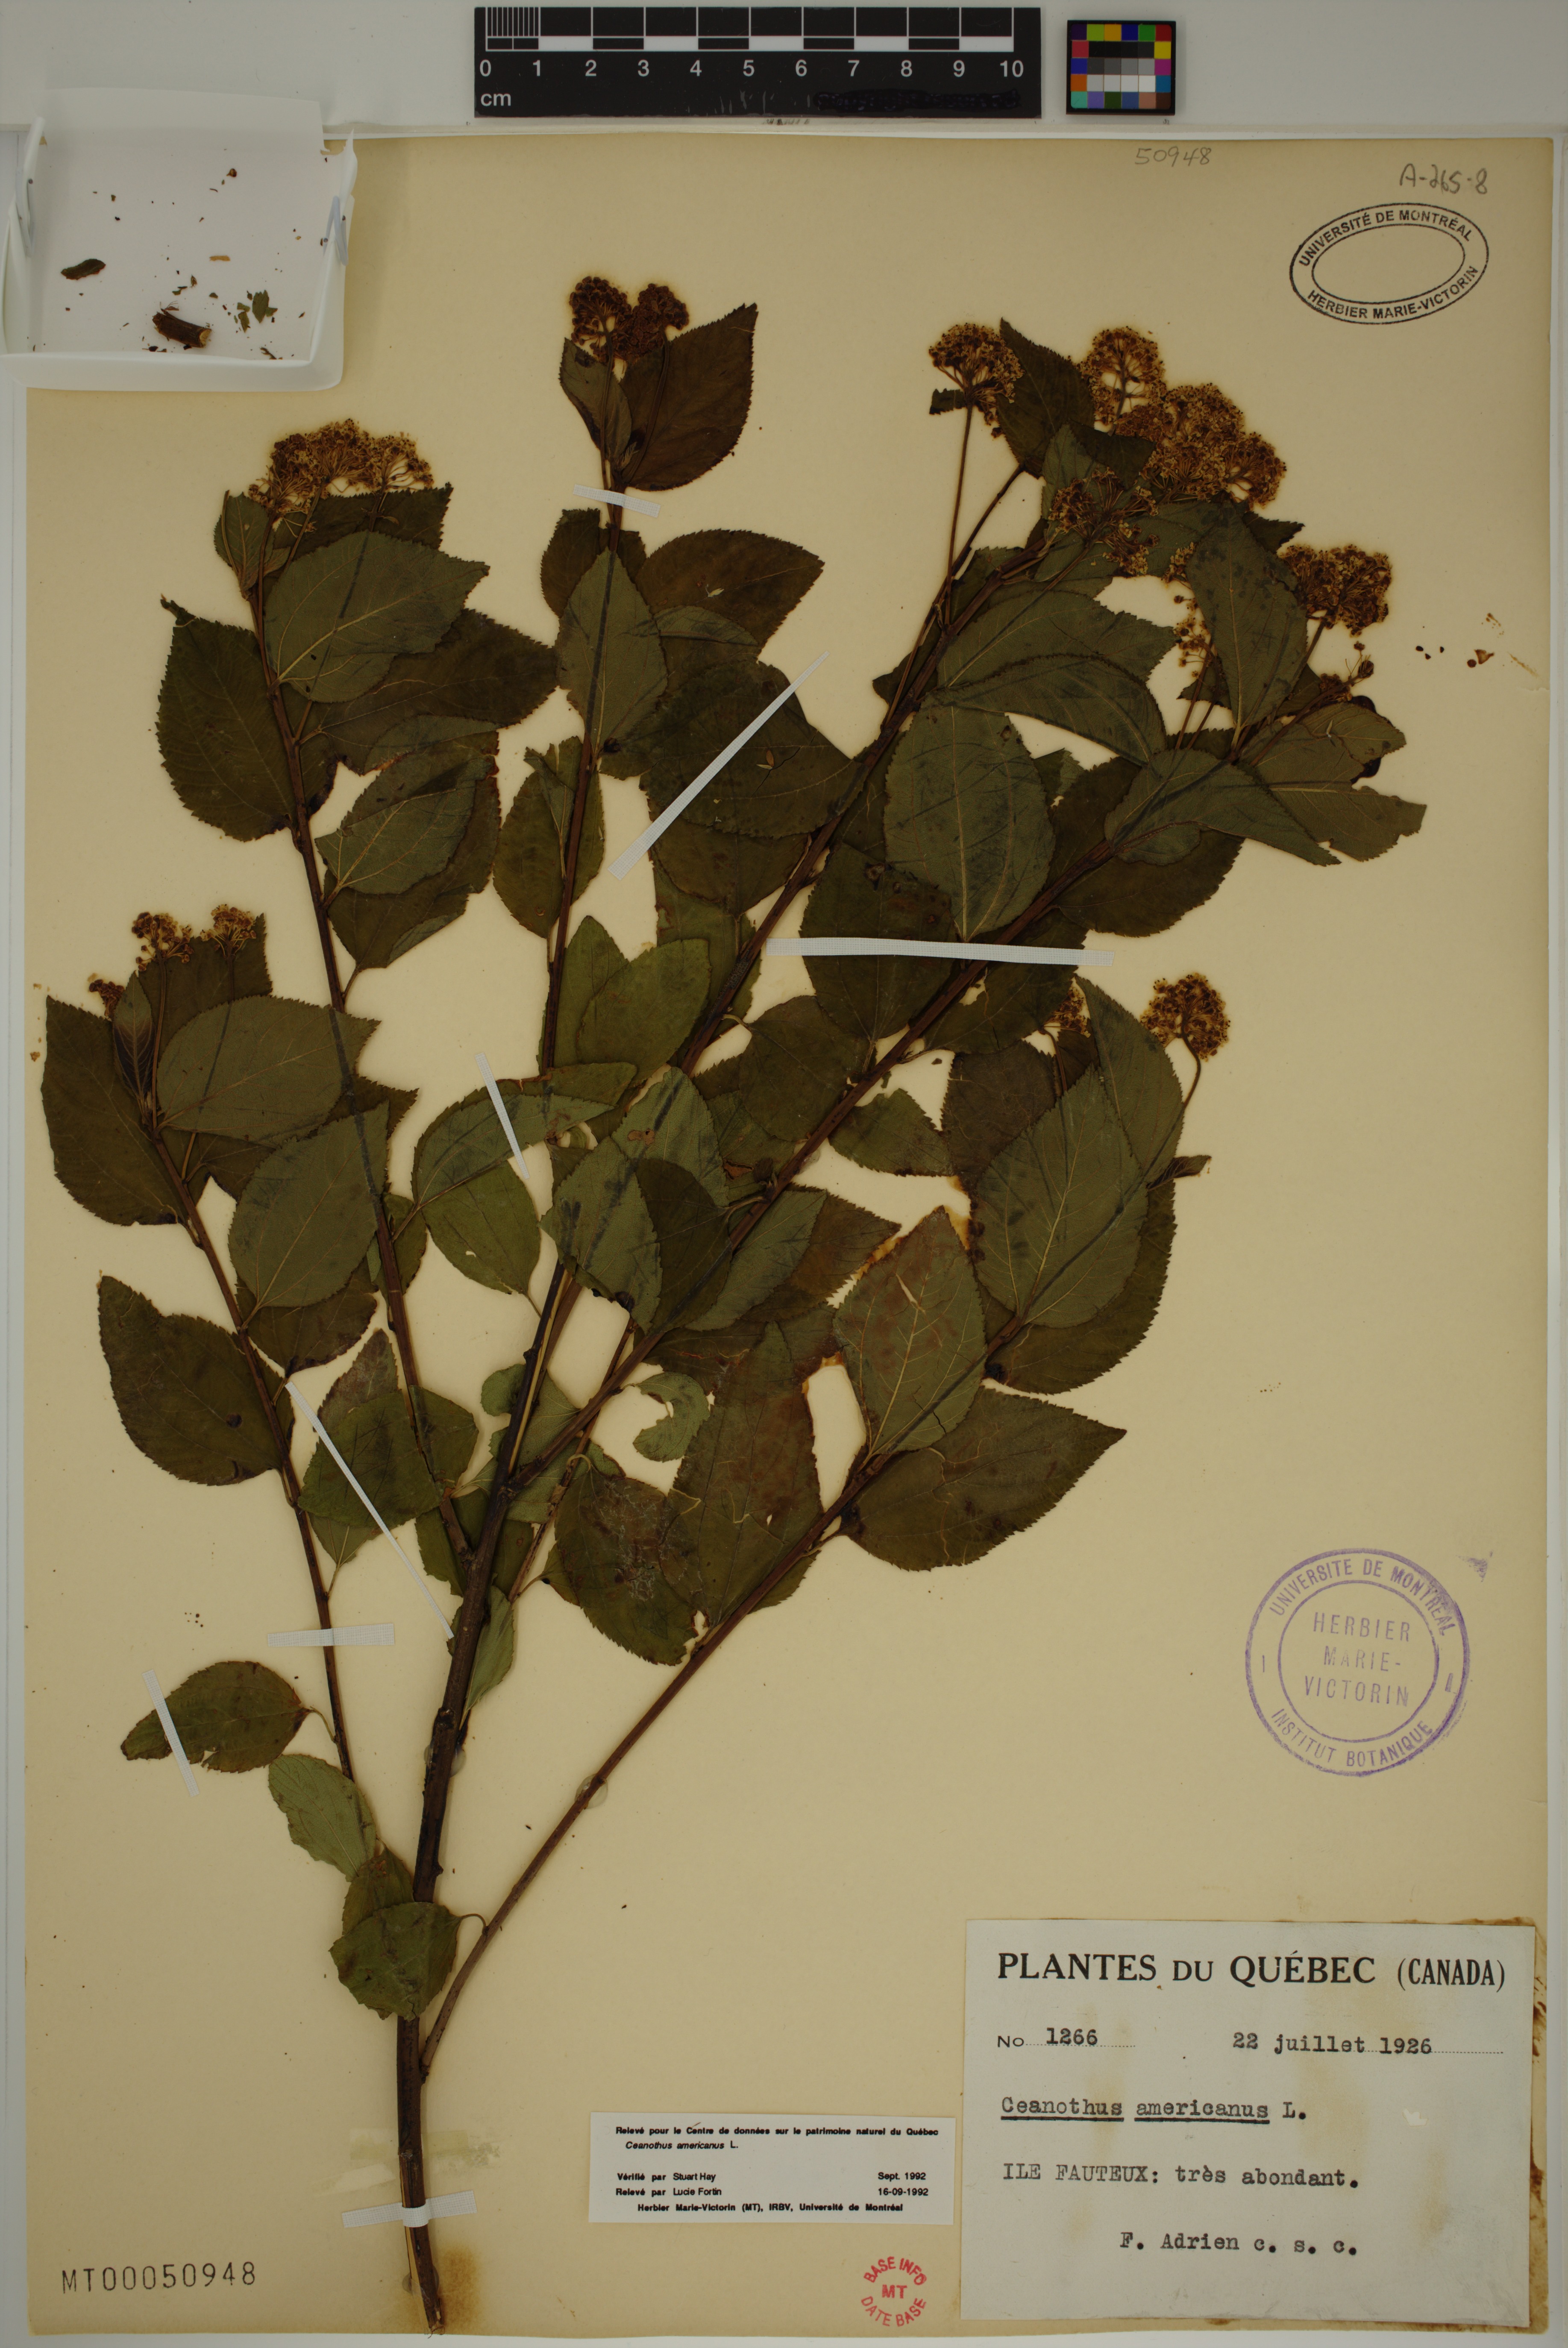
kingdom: Plantae
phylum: Tracheophyta
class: Magnoliopsida
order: Rosales
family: Rhamnaceae
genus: Ceanothus
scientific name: Ceanothus americanus
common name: Redroot
